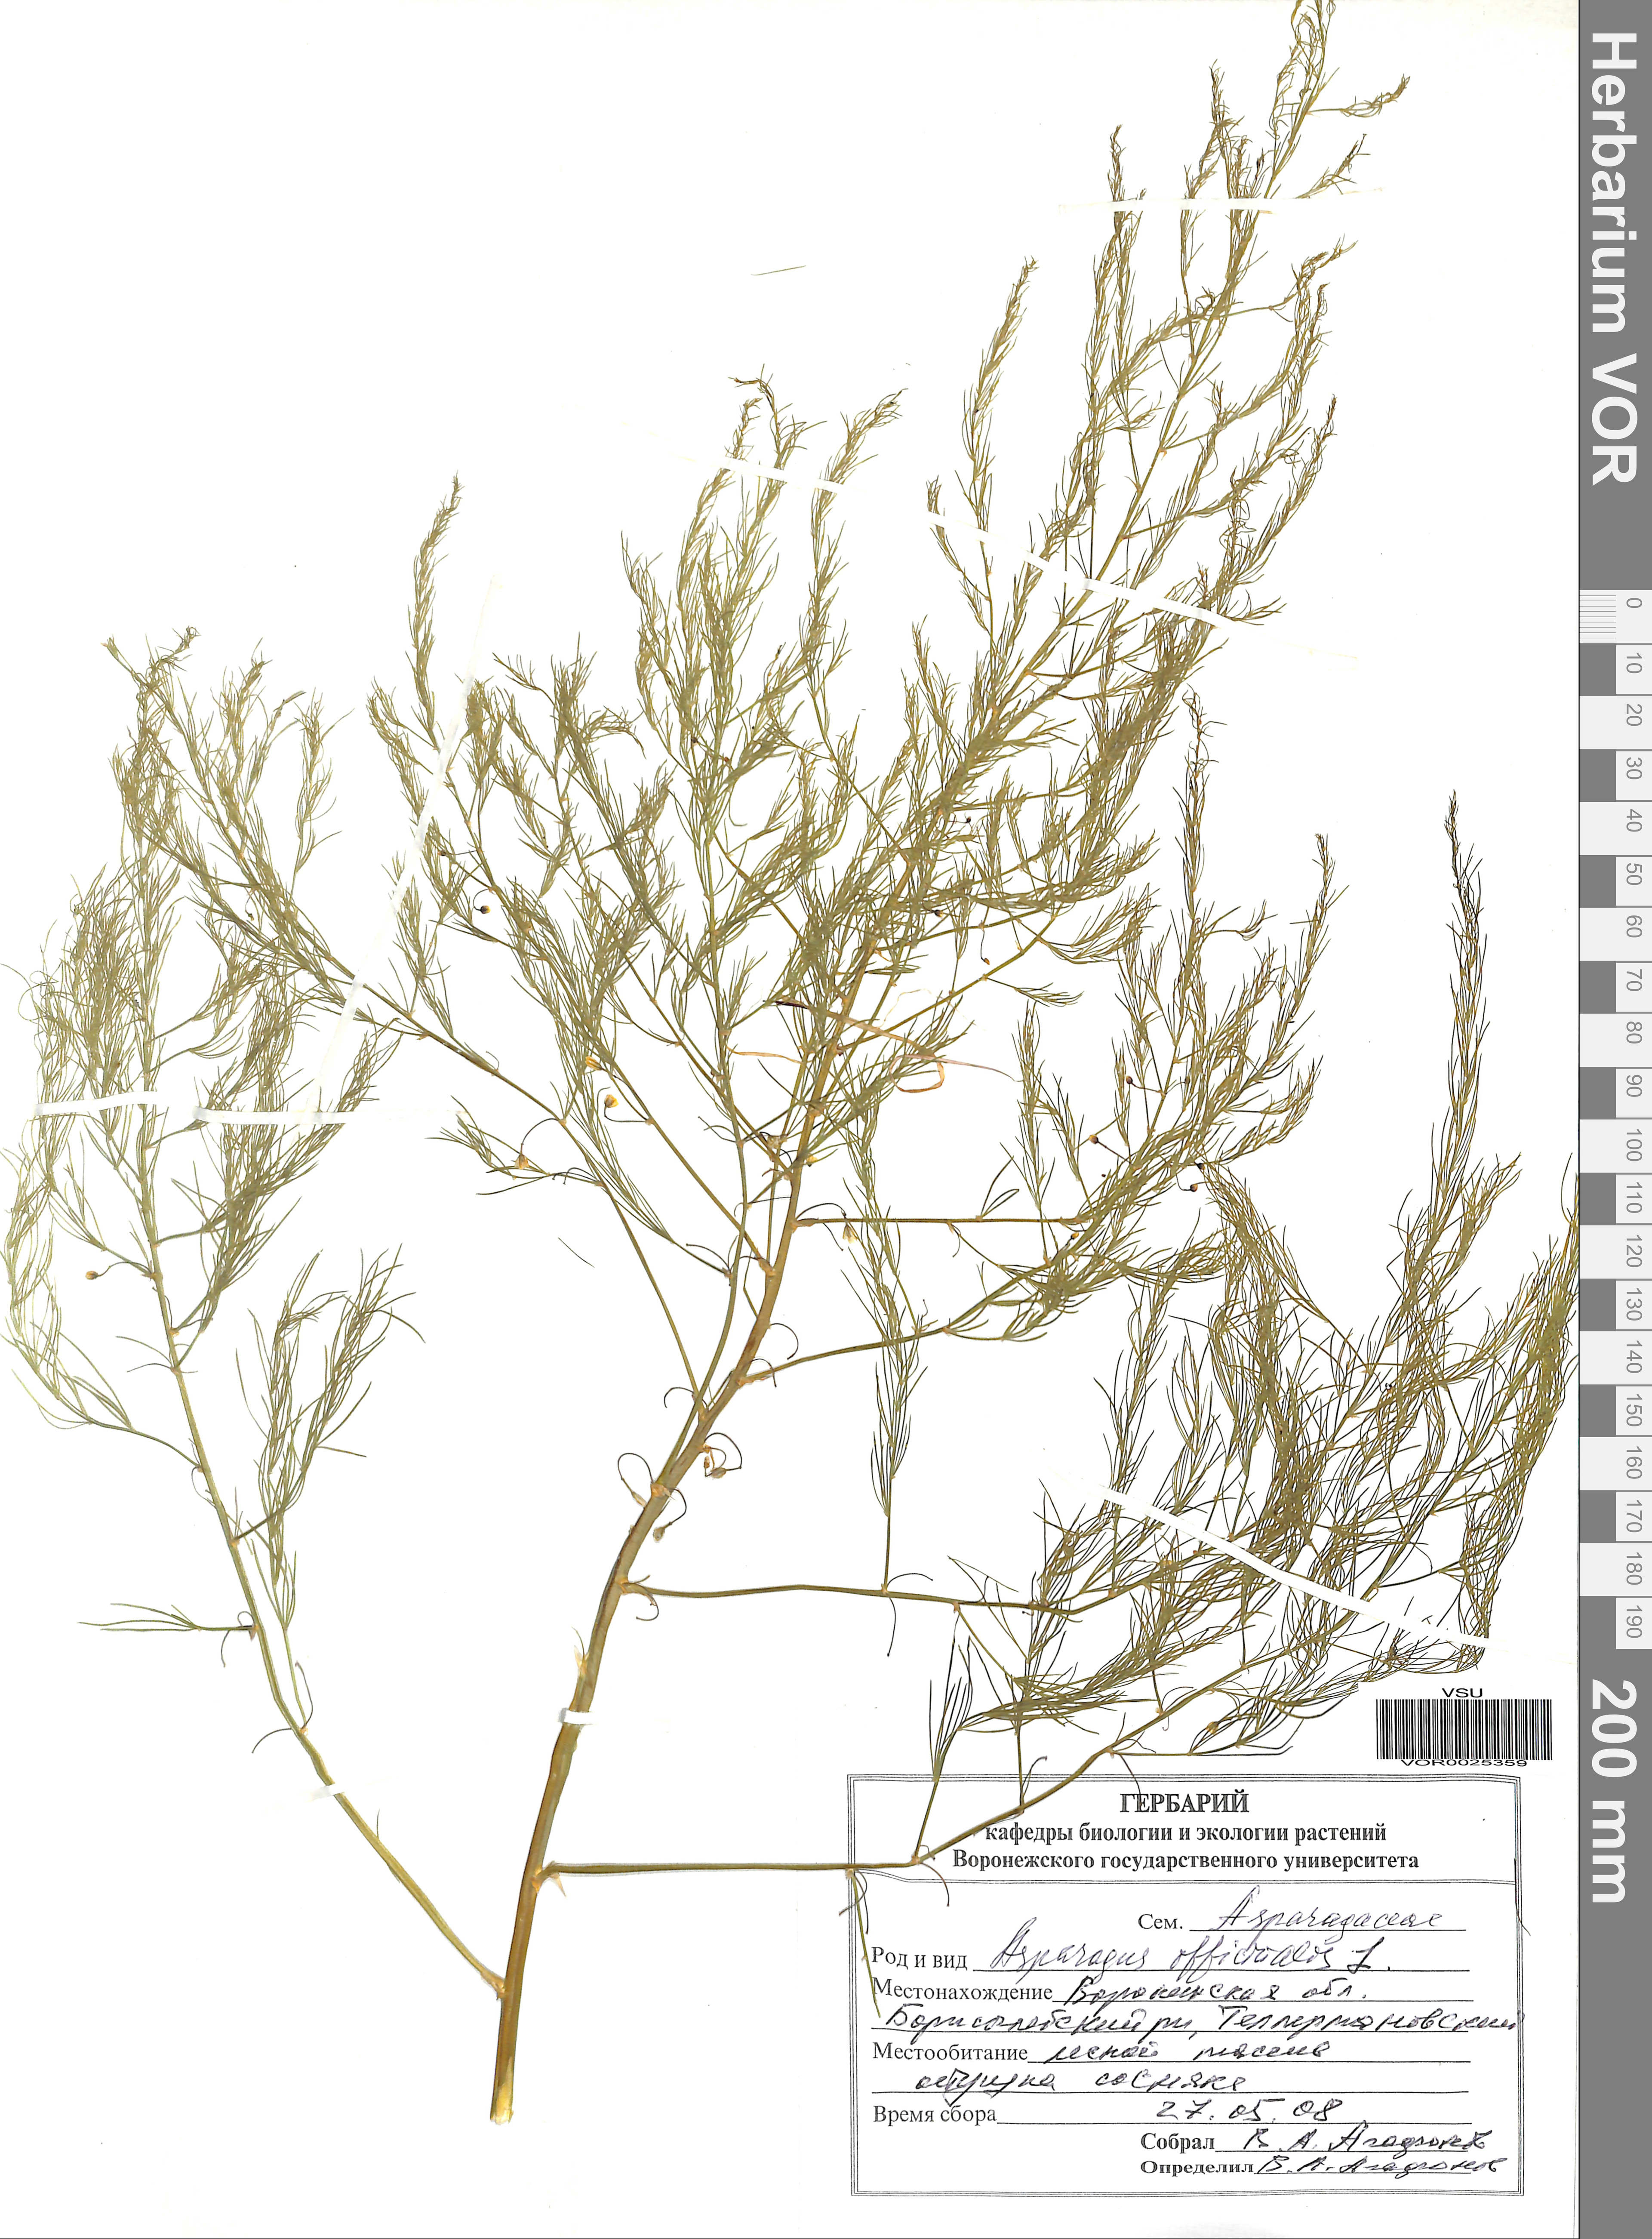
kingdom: Plantae
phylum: Tracheophyta
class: Liliopsida
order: Asparagales
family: Asparagaceae
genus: Asparagus
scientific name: Asparagus officinalis
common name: Garden asparagus
